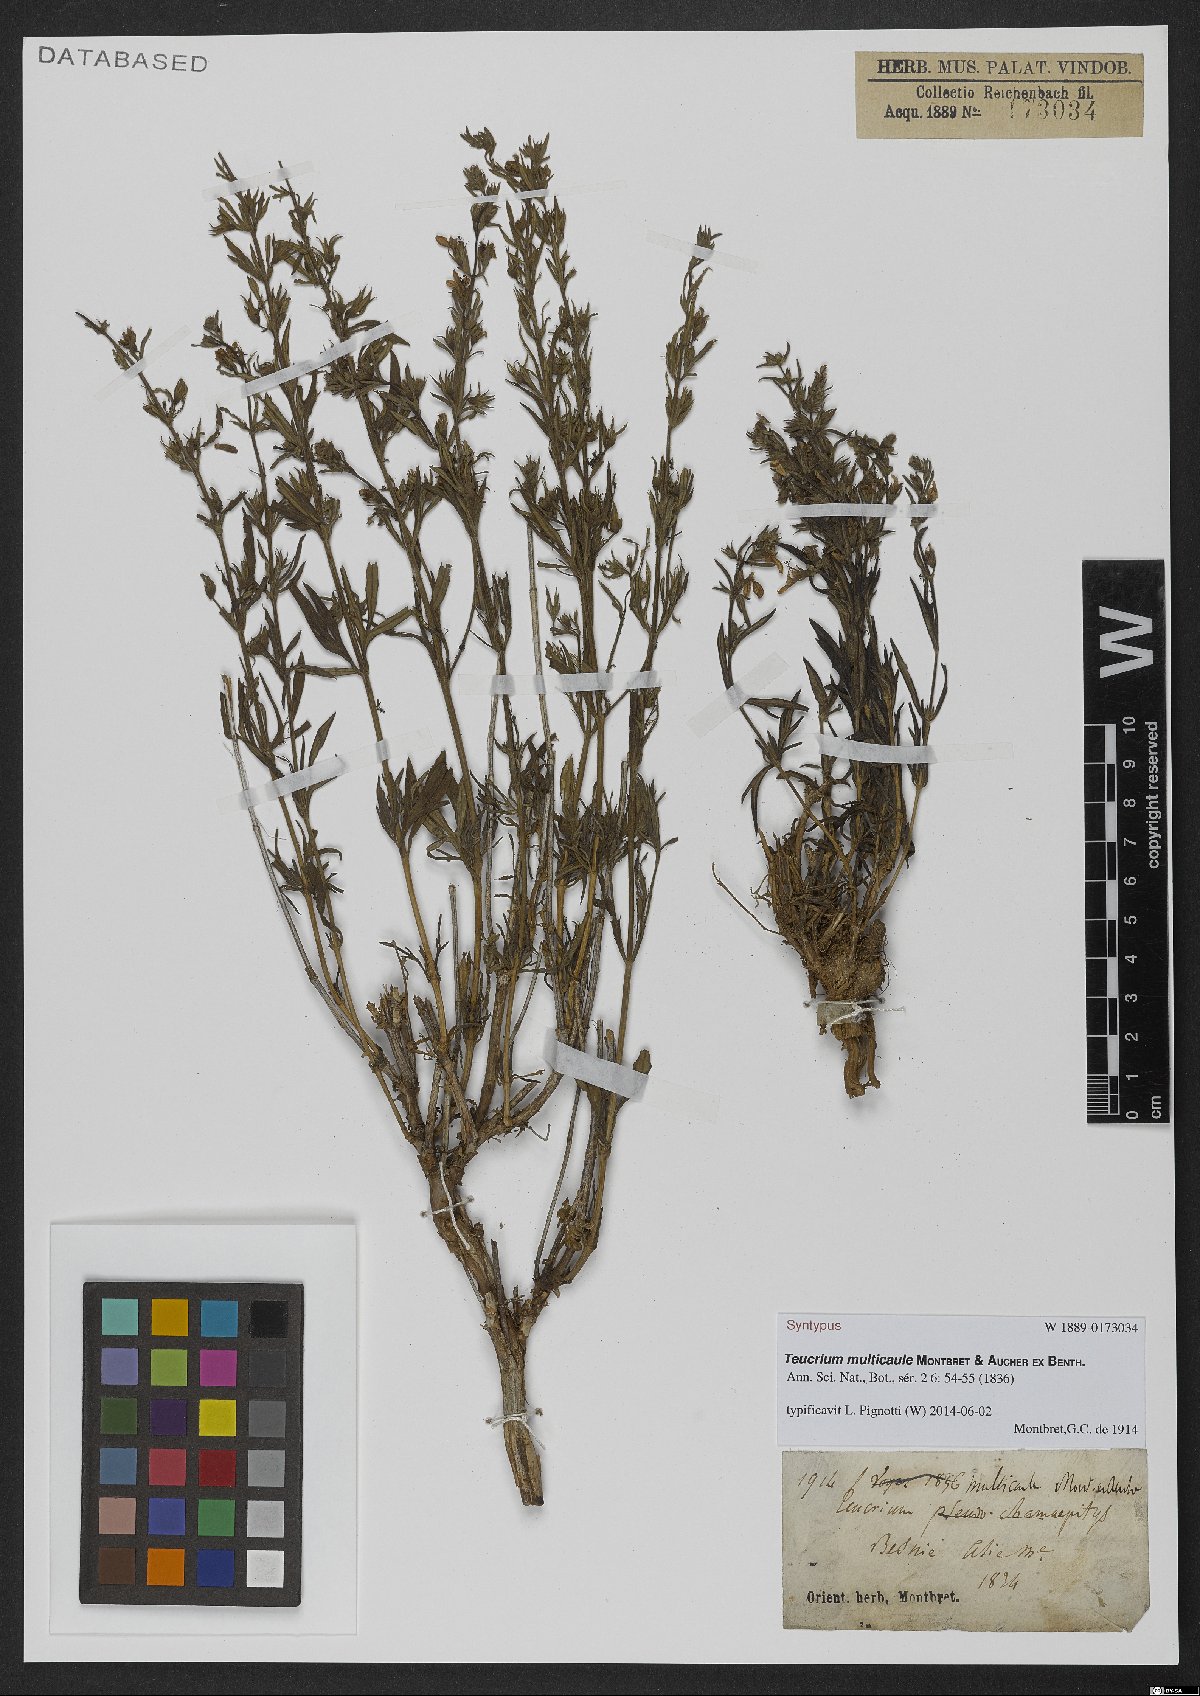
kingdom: Plantae
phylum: Tracheophyta
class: Magnoliopsida
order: Lamiales
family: Lamiaceae
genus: Teucrium
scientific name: Teucrium multicaule
